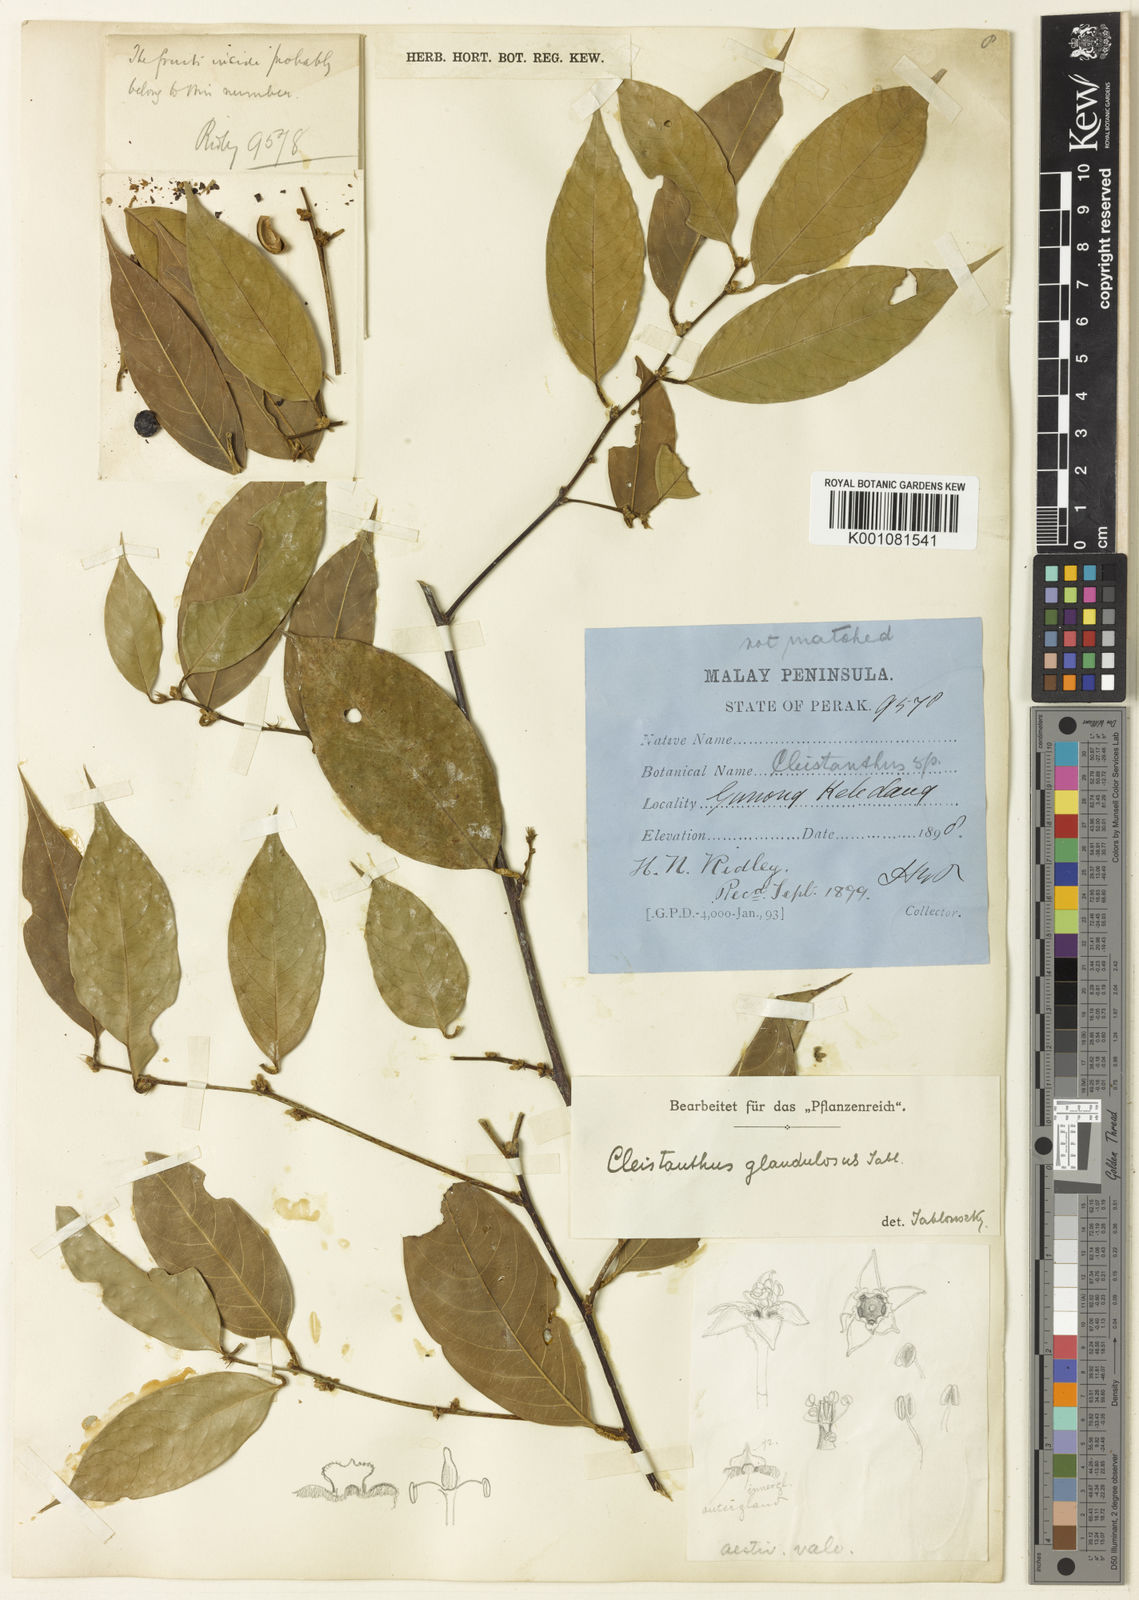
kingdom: Plantae
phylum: Tracheophyta
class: Magnoliopsida
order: Malpighiales
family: Phyllanthaceae
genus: Cleistanthus
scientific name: Cleistanthus glandulosus
